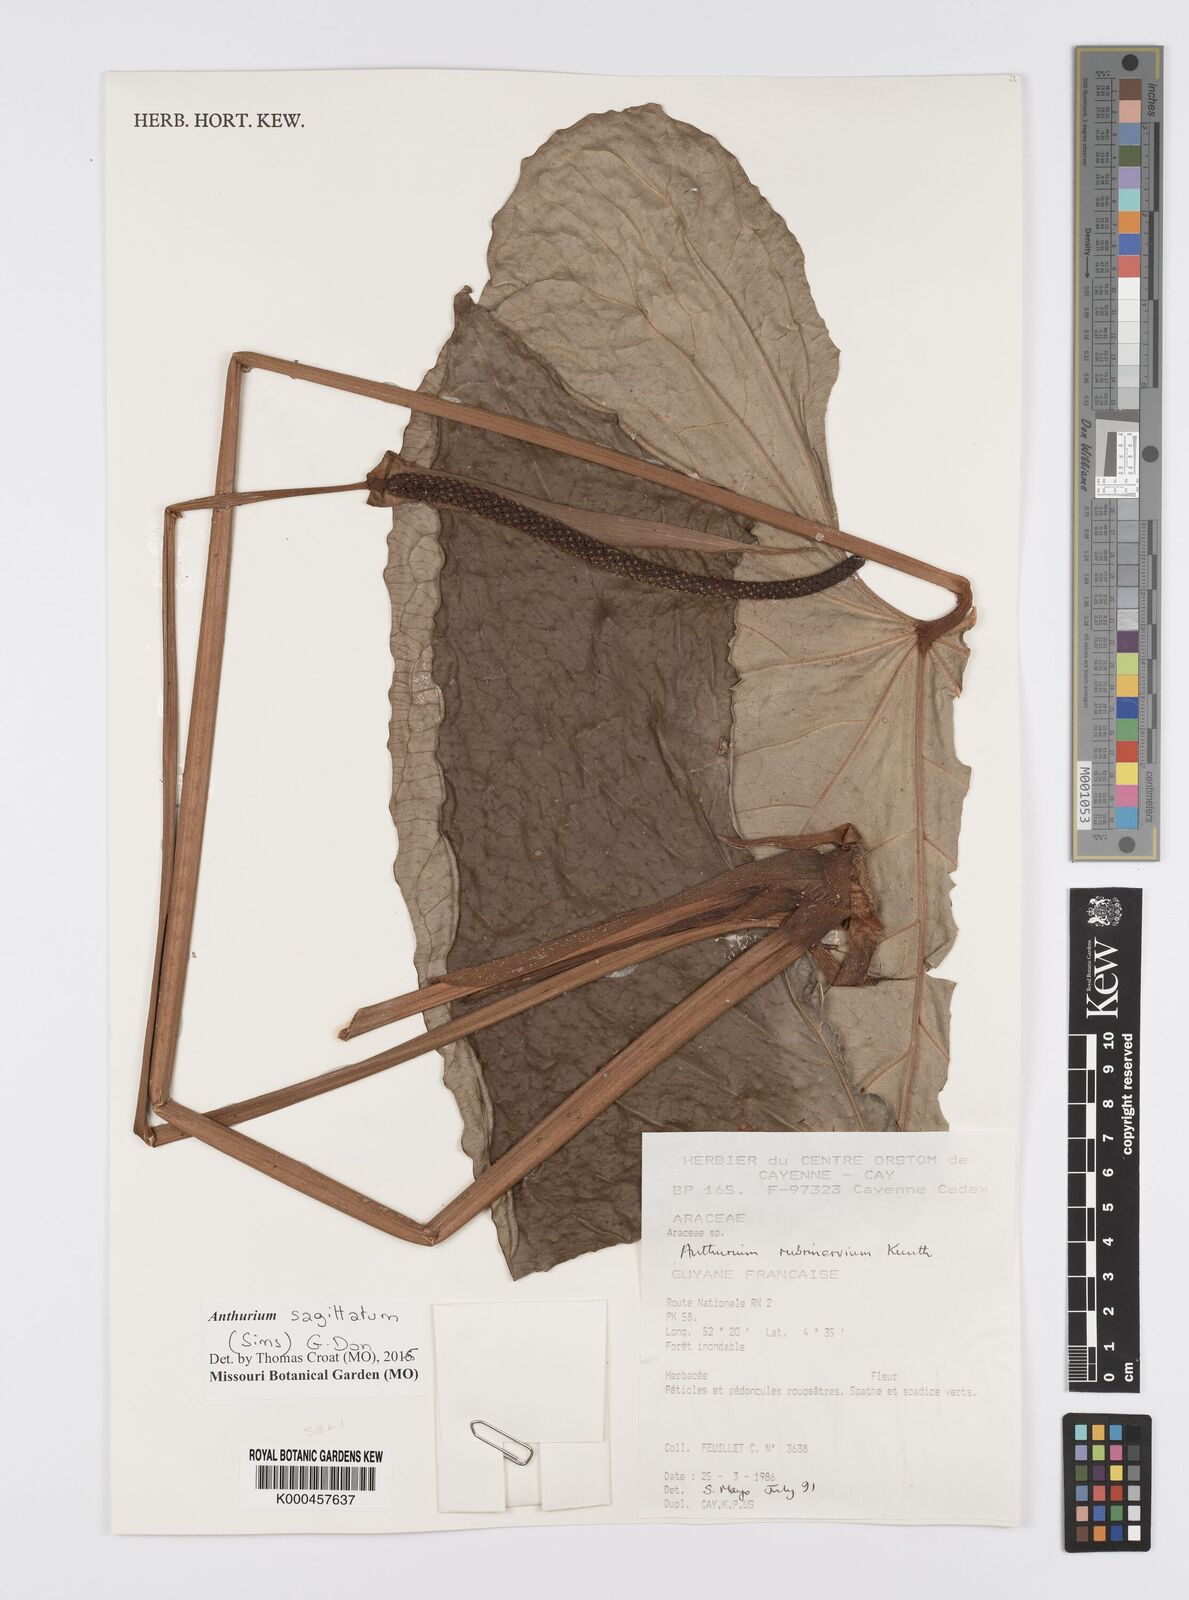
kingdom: Plantae
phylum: Tracheophyta
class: Liliopsida
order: Alismatales
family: Araceae
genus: Anthurium
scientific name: Anthurium sagittatum
